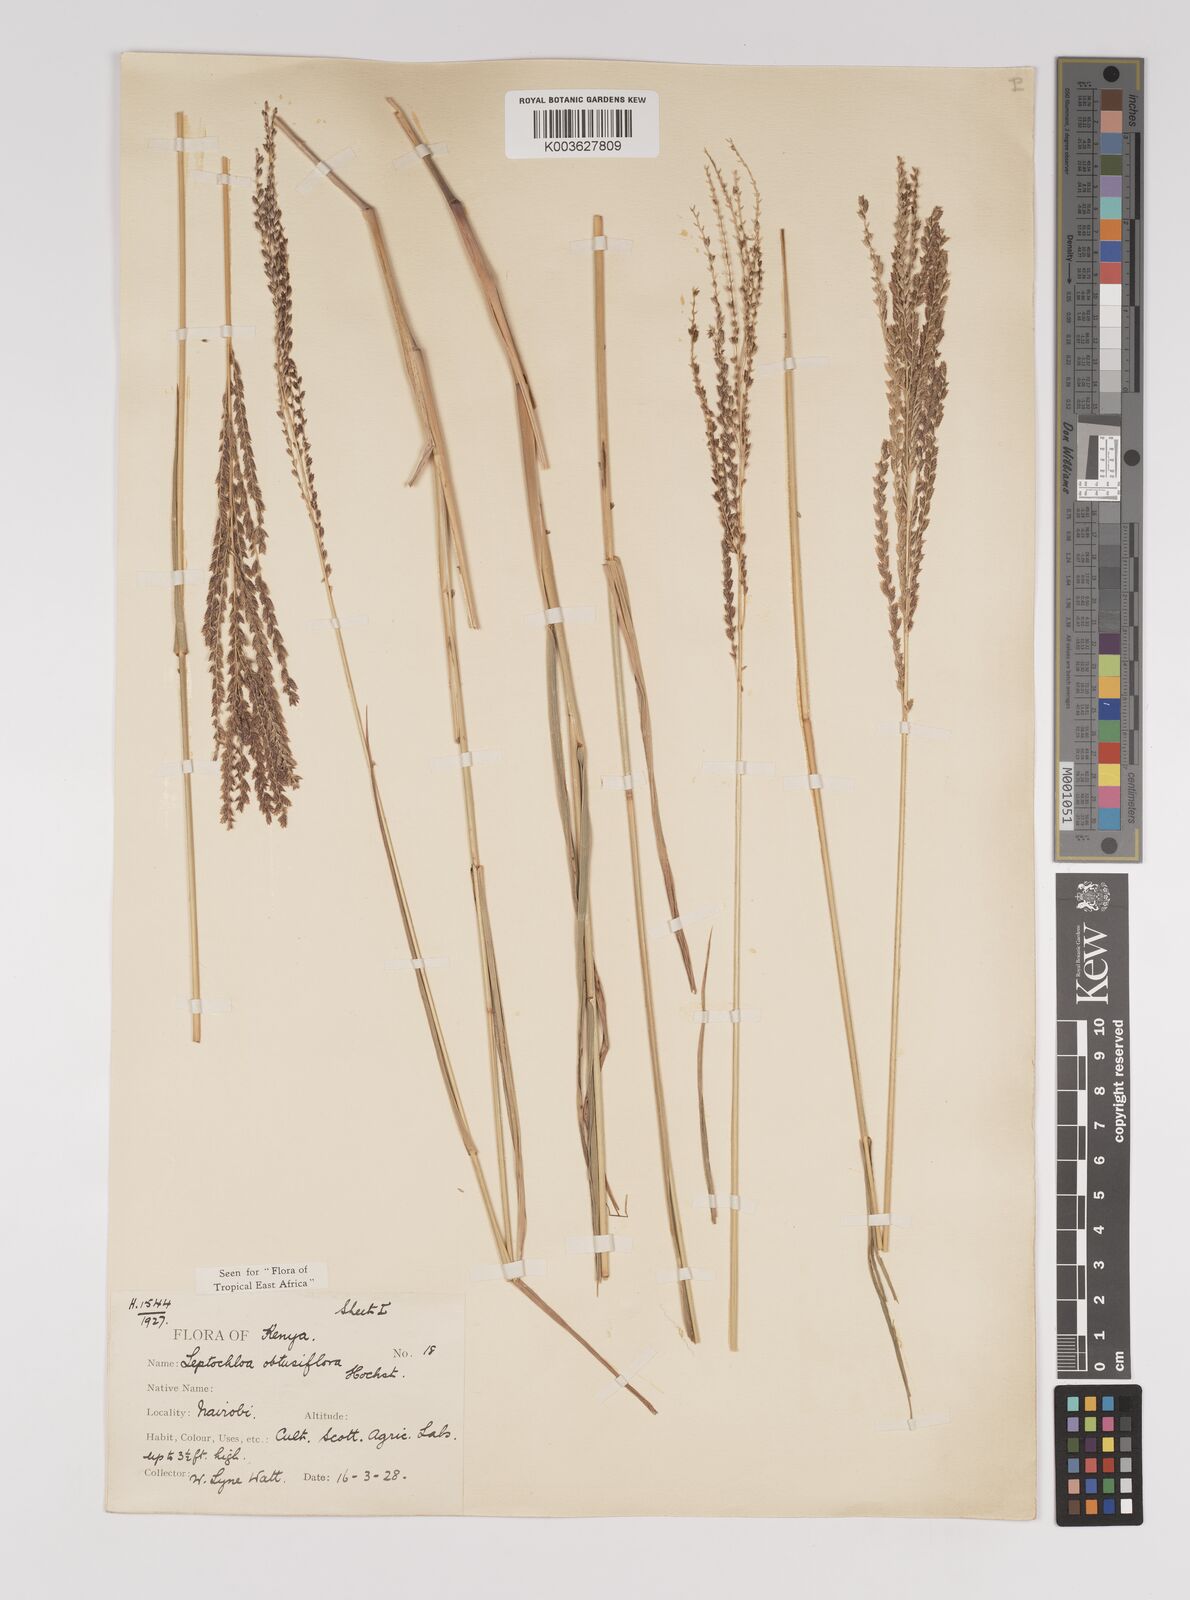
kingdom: Plantae
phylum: Tracheophyta
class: Liliopsida
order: Poales
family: Poaceae
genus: Disakisperma
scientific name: Disakisperma obtusiflorum
